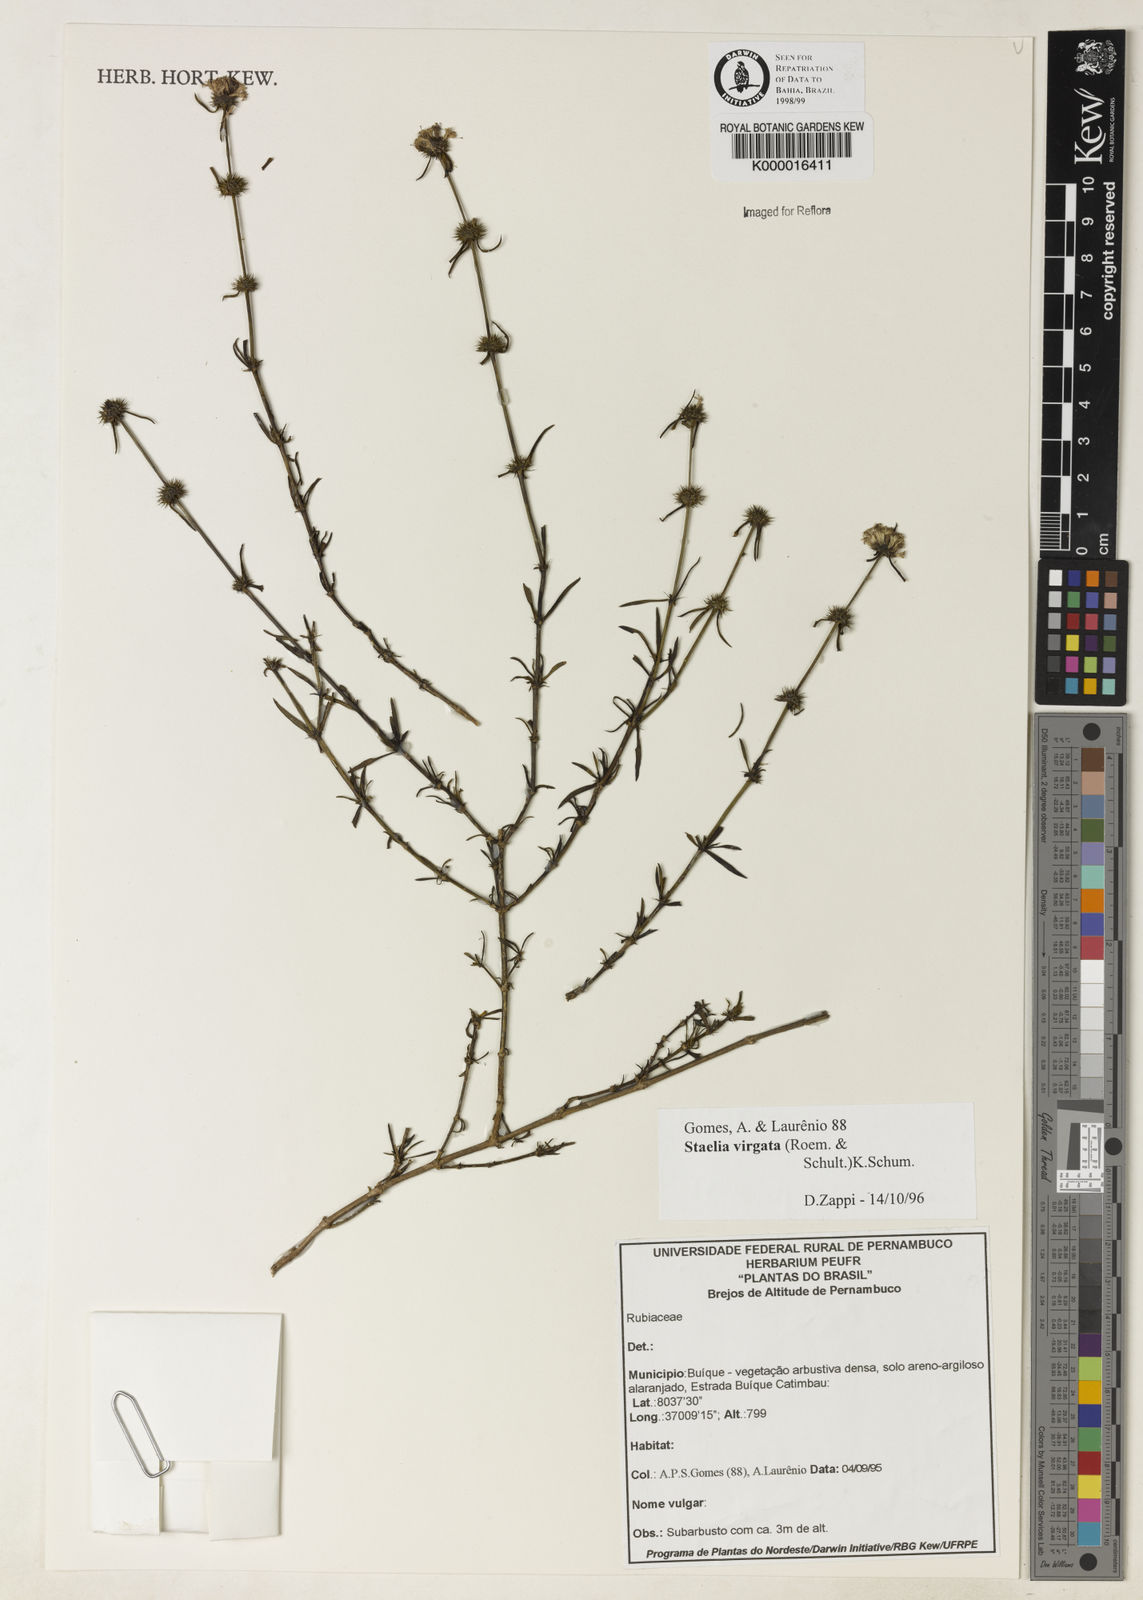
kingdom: Plantae
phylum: Tracheophyta
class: Magnoliopsida
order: Gentianales
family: Rubiaceae
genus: Staelia
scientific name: Staelia virgata
